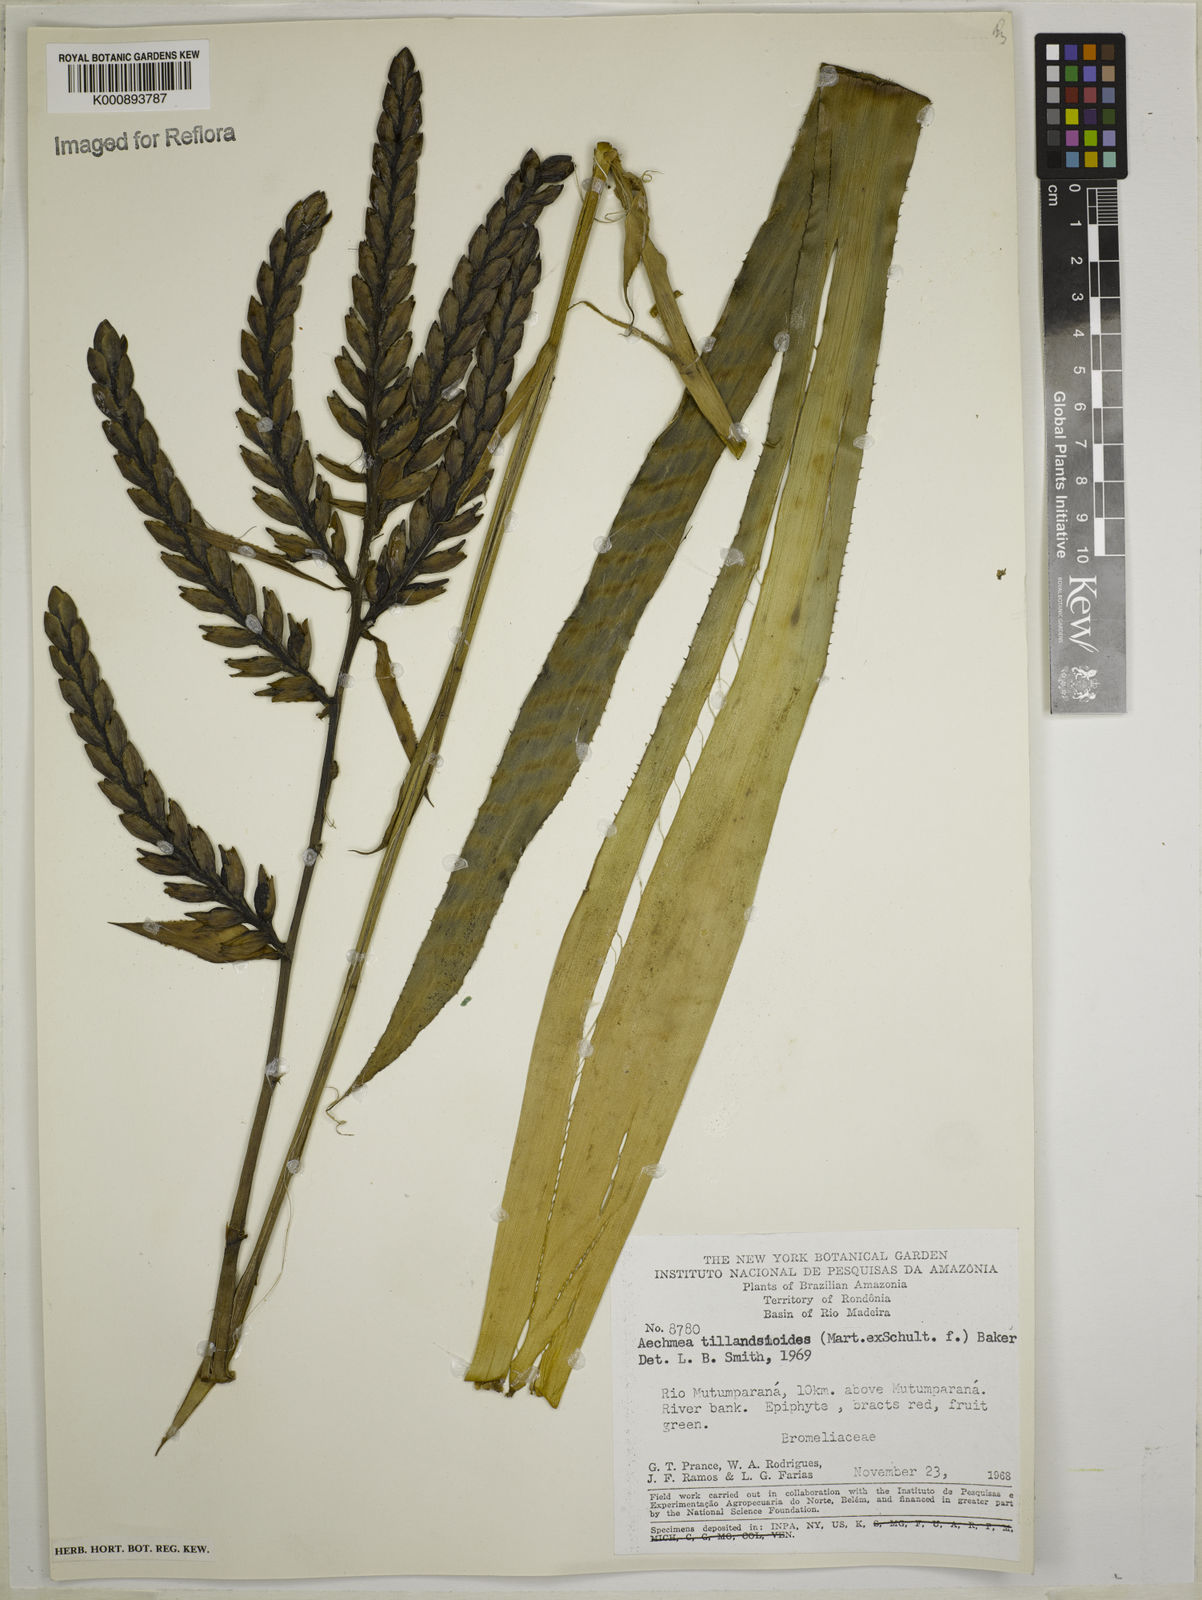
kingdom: Plantae
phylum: Tracheophyta
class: Liliopsida
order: Poales
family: Bromeliaceae
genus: Aechmea
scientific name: Aechmea tillandsioides
